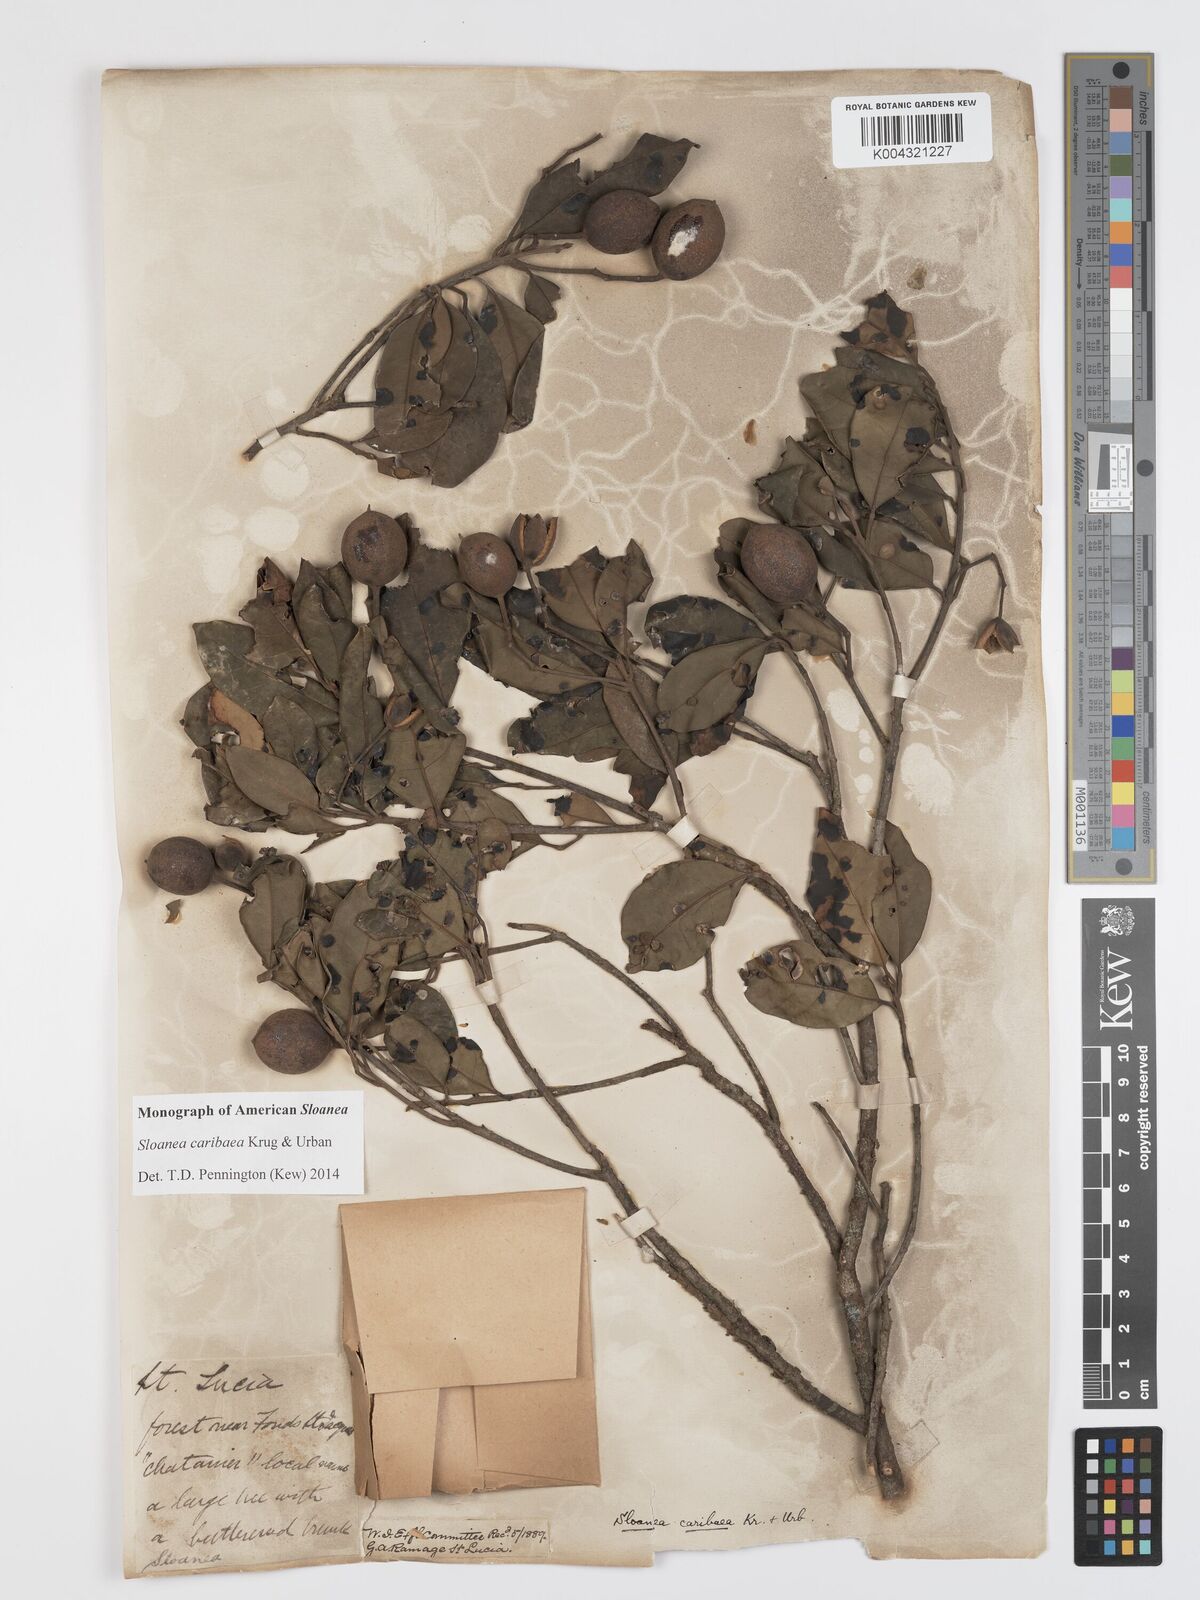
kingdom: Plantae
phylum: Tracheophyta
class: Magnoliopsida
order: Oxalidales
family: Elaeocarpaceae
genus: Sloanea
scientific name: Sloanea caribaea
